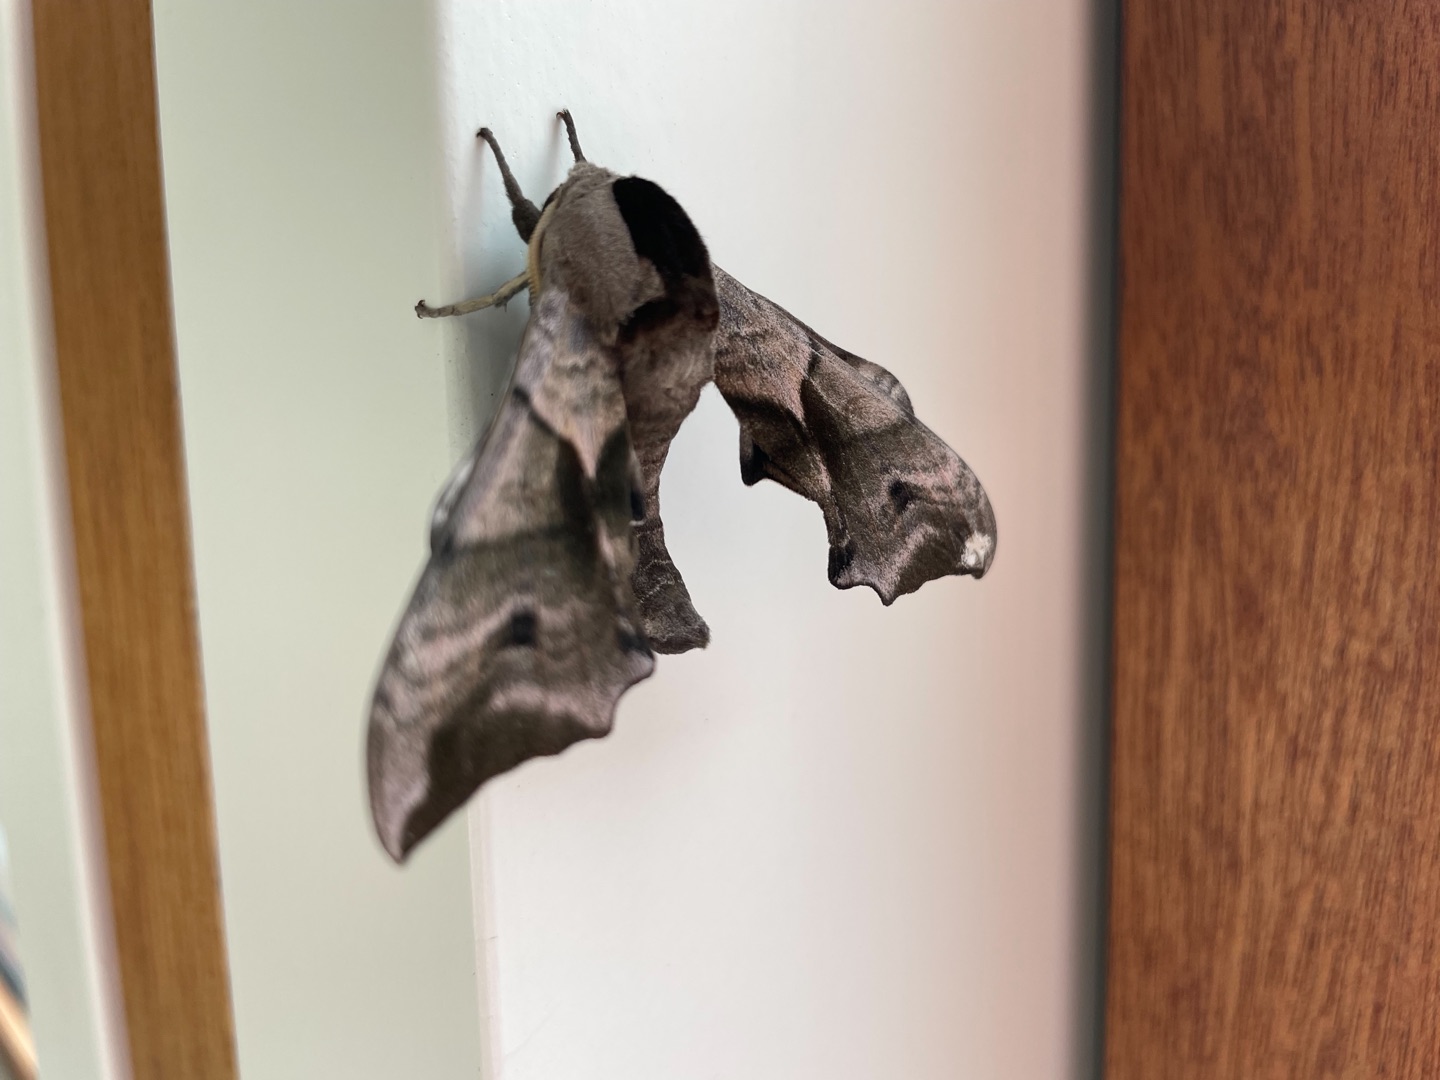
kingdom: Animalia
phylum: Arthropoda
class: Insecta
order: Lepidoptera
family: Sphingidae
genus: Smerinthus
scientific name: Smerinthus ocellata
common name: Aftenpåfugleøje
